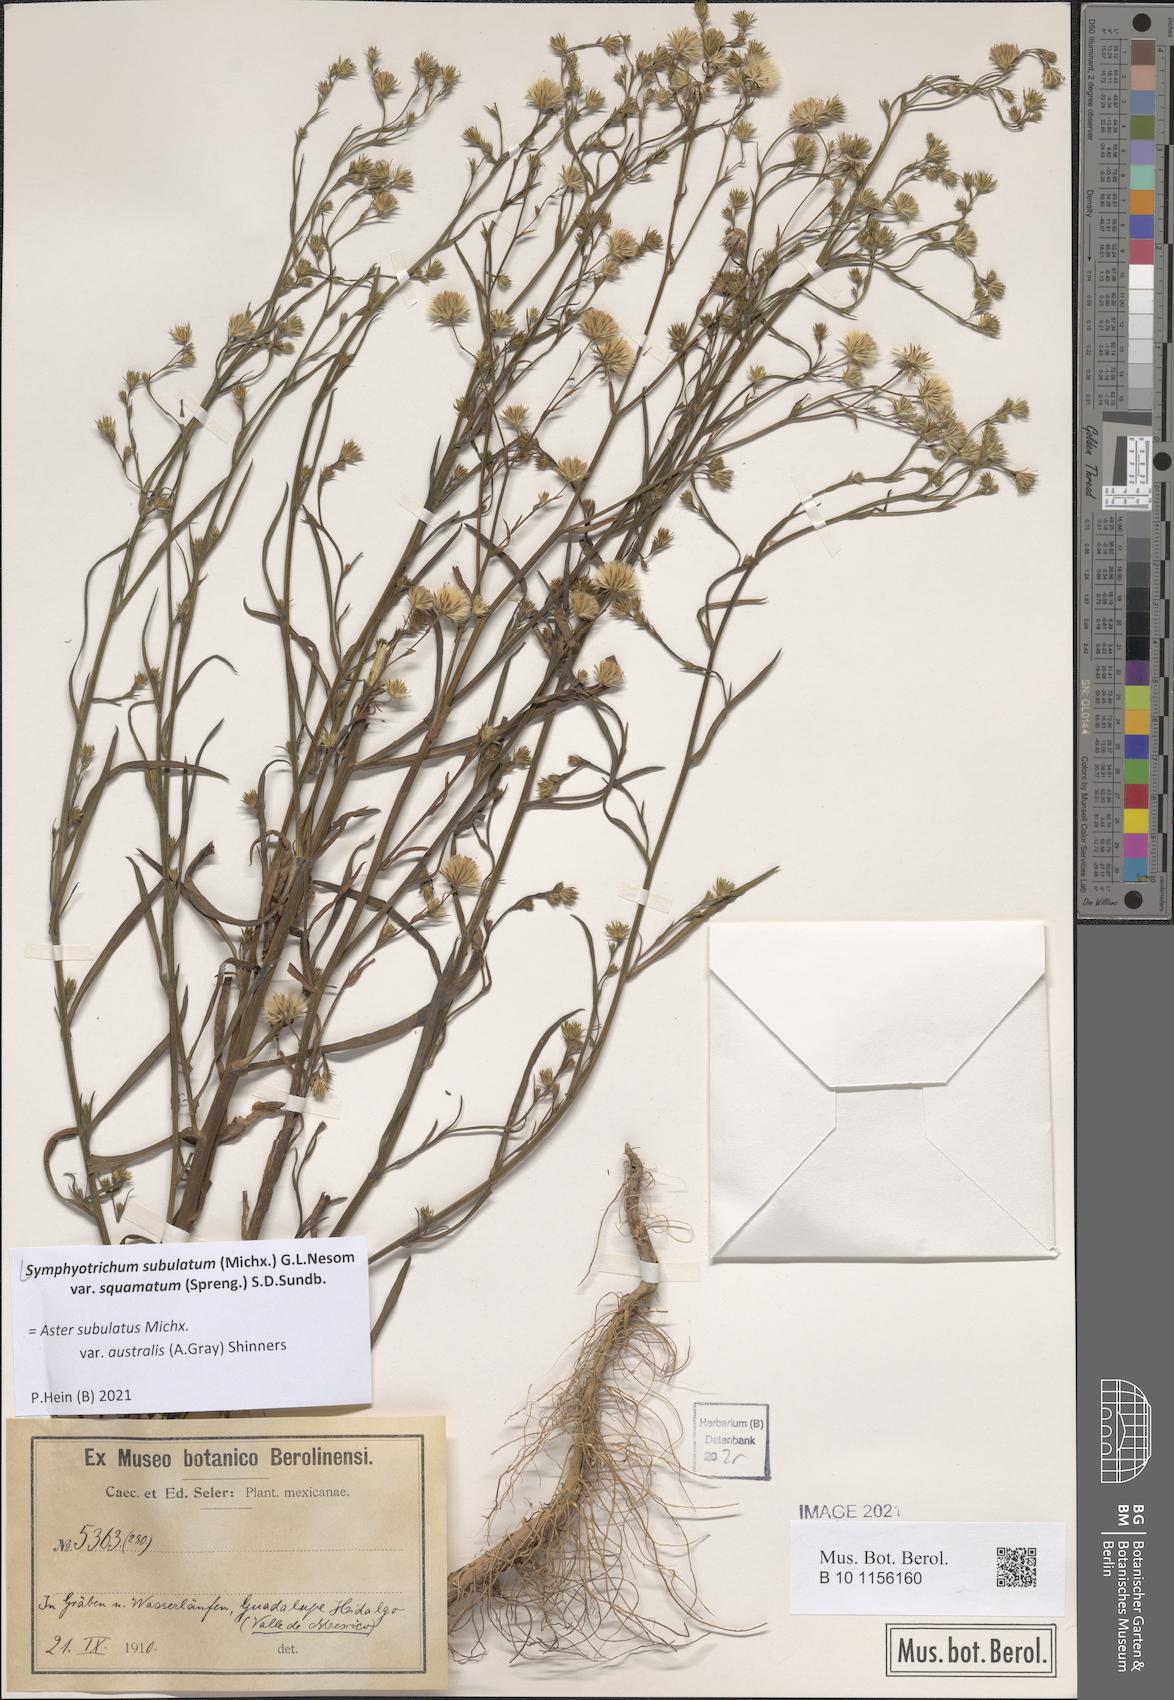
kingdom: Plantae
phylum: Tracheophyta
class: Magnoliopsida
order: Asterales
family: Asteraceae
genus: Symphyotrichum
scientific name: Symphyotrichum squamatum
